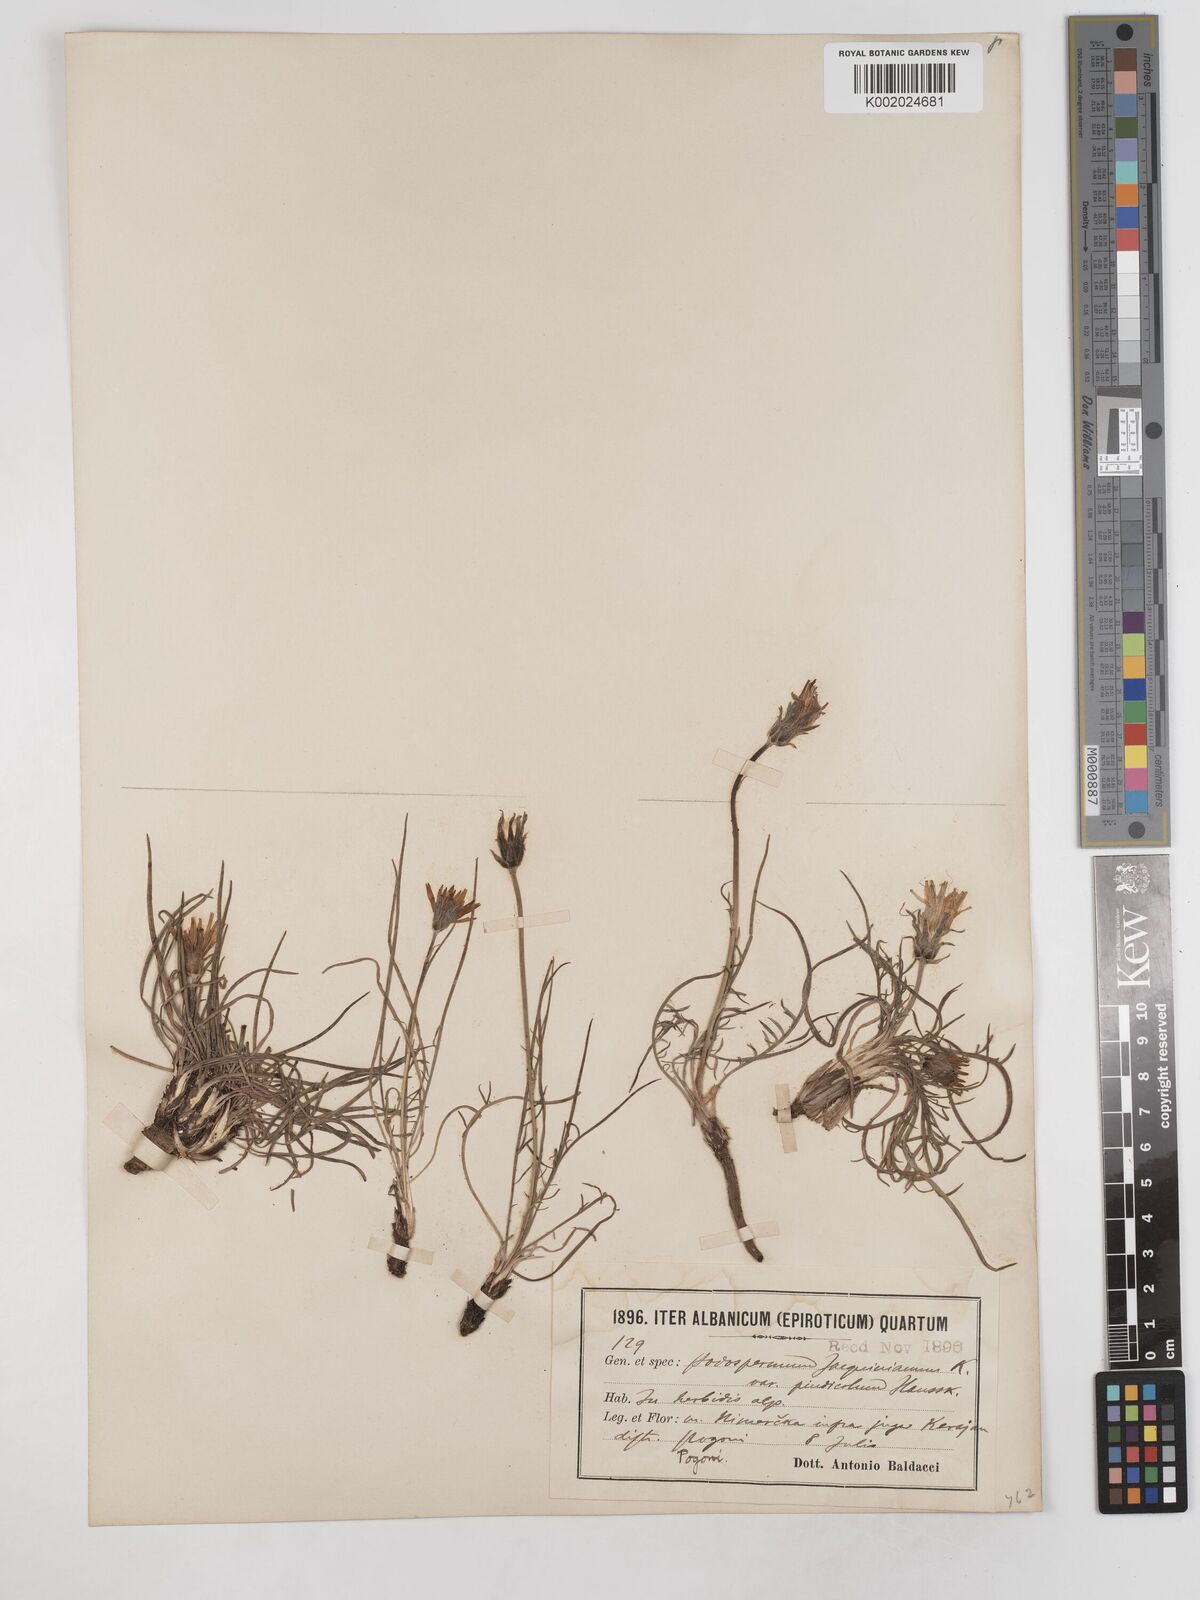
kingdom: Plantae
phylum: Tracheophyta
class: Magnoliopsida
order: Asterales
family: Asteraceae
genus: Scorzonera
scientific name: Scorzonera
